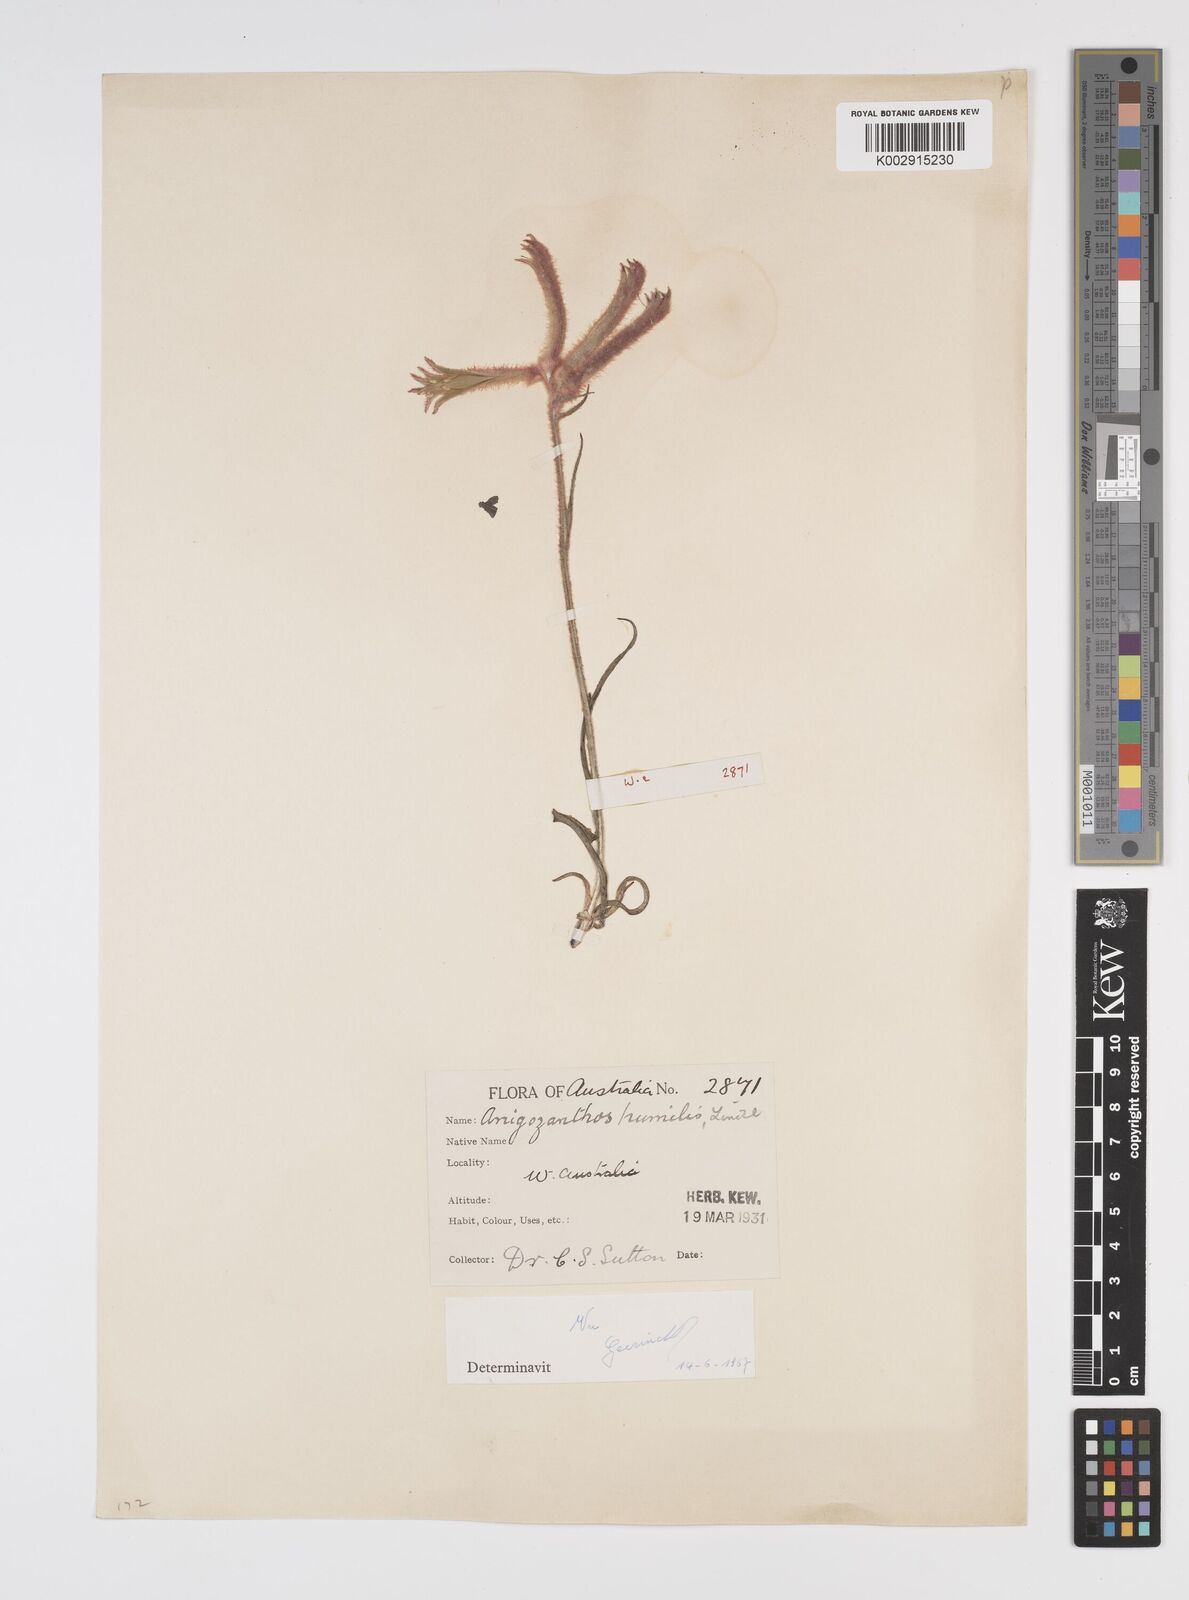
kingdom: Plantae
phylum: Tracheophyta
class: Liliopsida
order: Commelinales
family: Haemodoraceae
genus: Anigozanthos
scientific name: Anigozanthos humilis
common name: Cat's-paw
